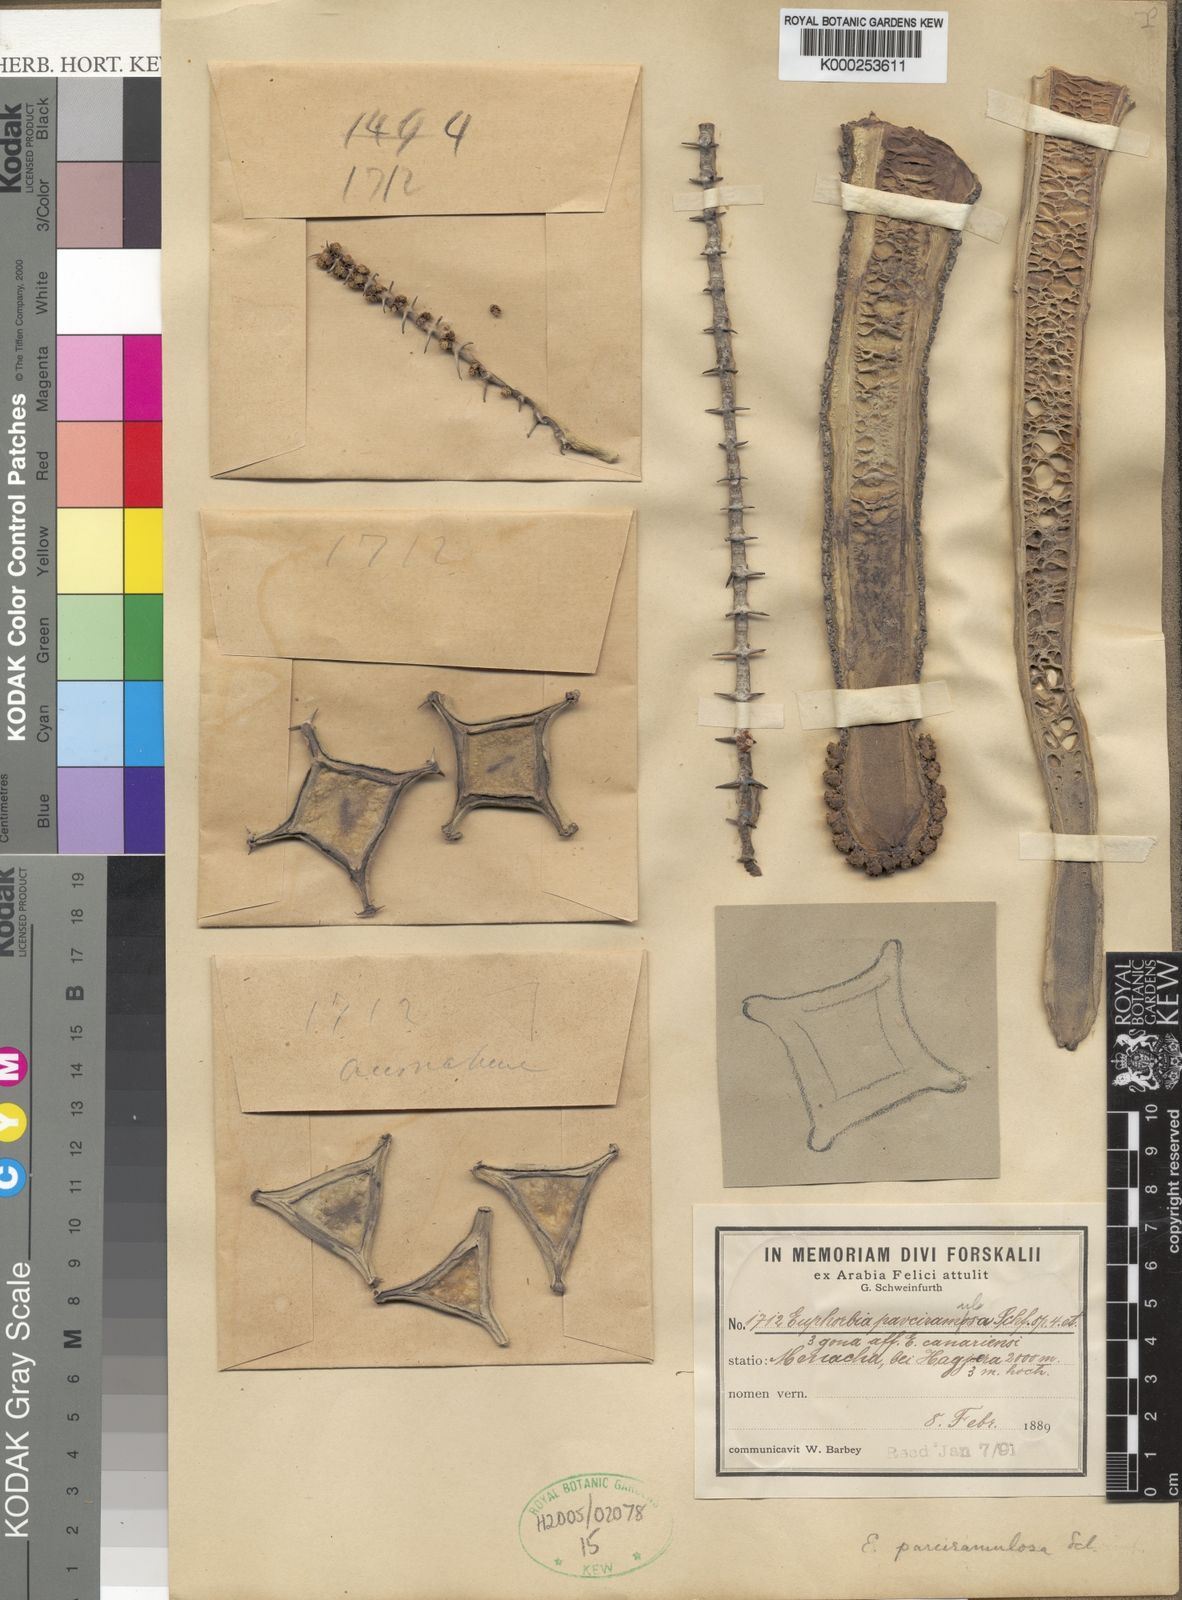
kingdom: Plantae
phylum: Tracheophyta
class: Magnoliopsida
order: Malpighiales
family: Euphorbiaceae
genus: Euphorbia
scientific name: Euphorbia parciramulosa
